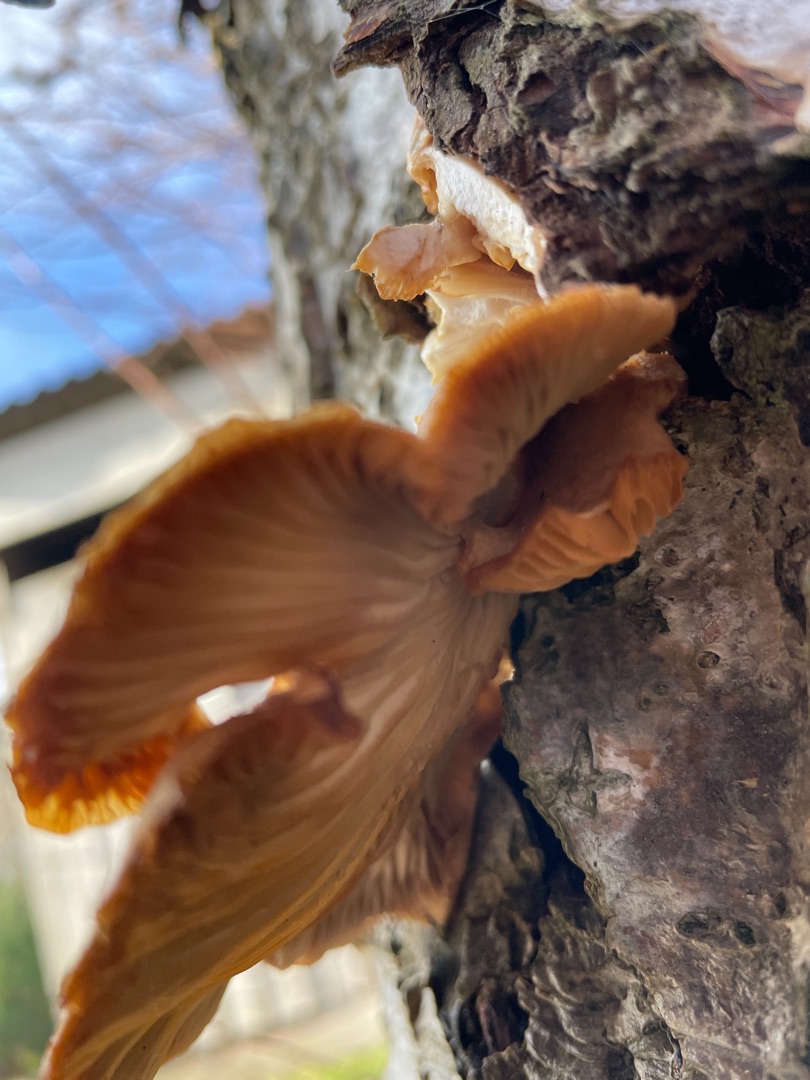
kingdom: Fungi
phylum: Basidiomycota
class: Agaricomycetes
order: Agaricales
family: Pleurotaceae
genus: Pleurotus
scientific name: Pleurotus ostreatus
